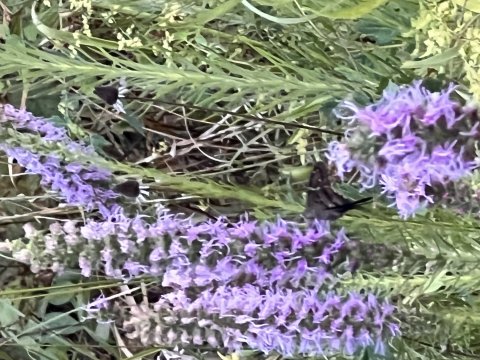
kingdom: Animalia
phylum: Arthropoda
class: Insecta
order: Lepidoptera
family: Hesperiidae
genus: Urbanus
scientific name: Urbanus proteus
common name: Long-tailed Skipper
